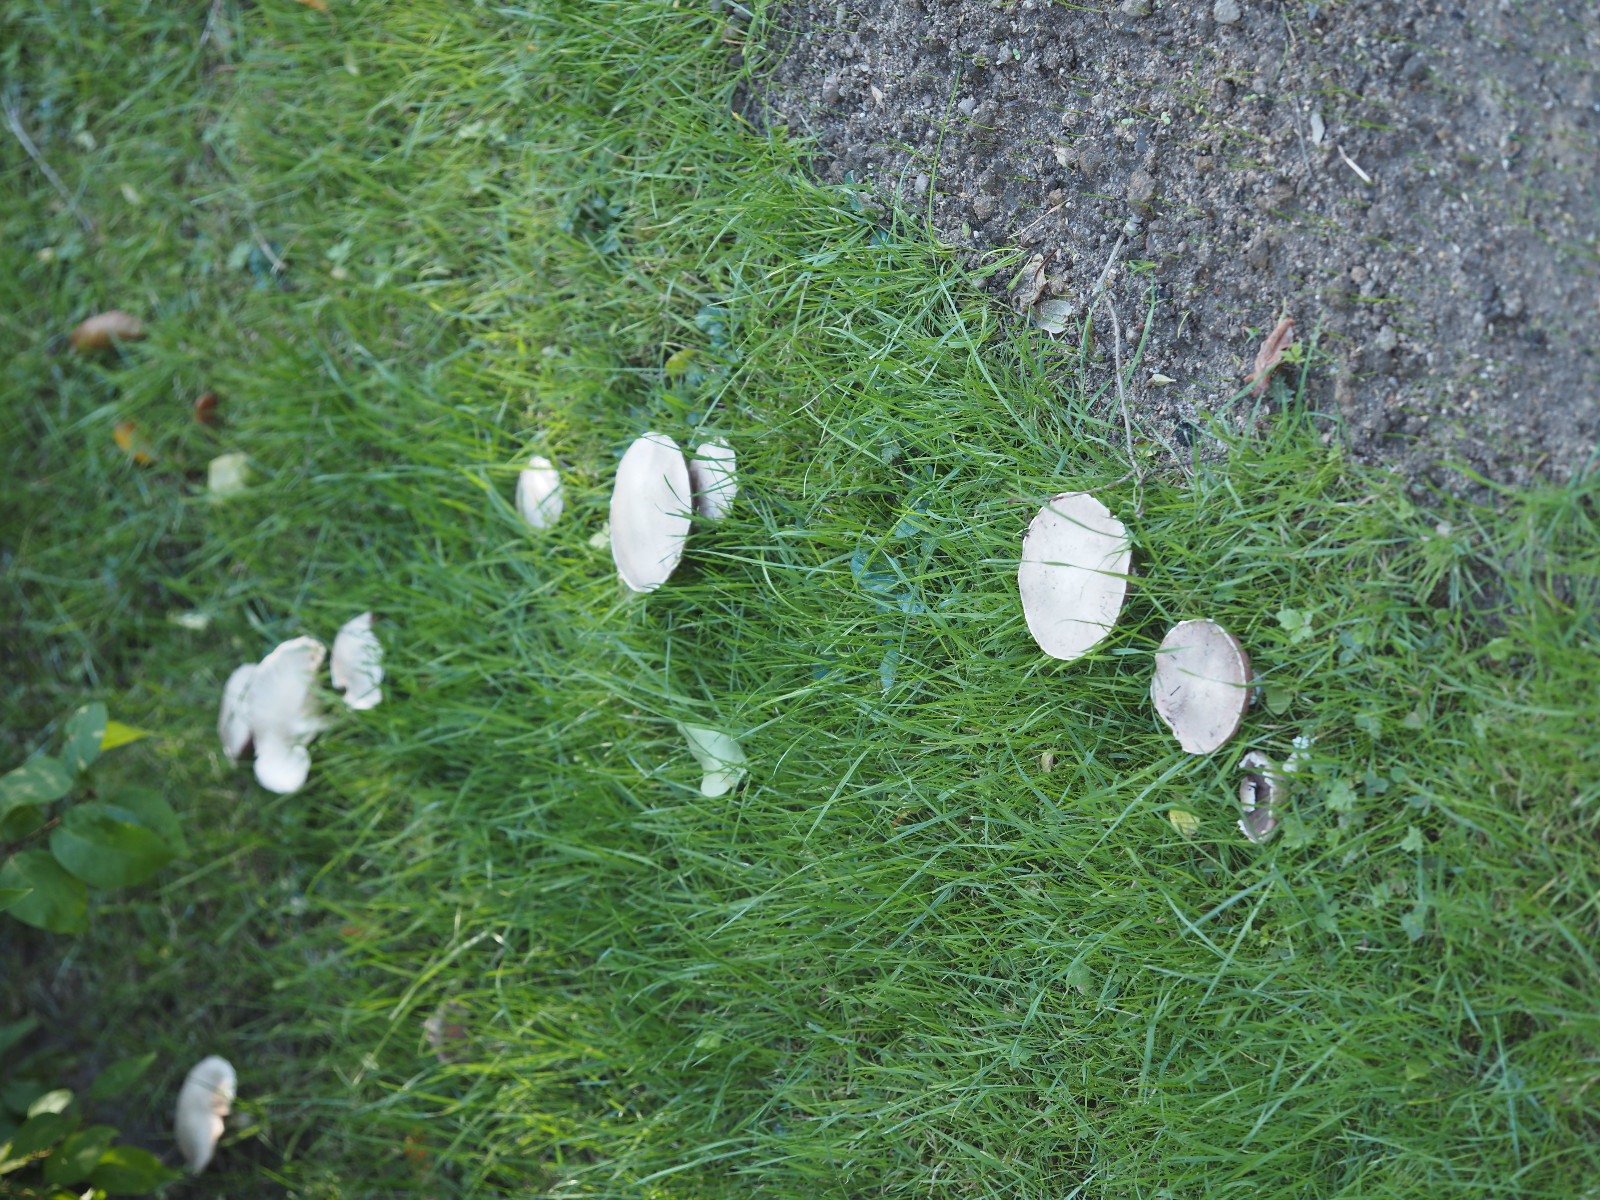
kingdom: Fungi
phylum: Basidiomycota
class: Agaricomycetes
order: Agaricales
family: Agaricaceae
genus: Agaricus
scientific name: Agaricus campestris
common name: mark-champignon
